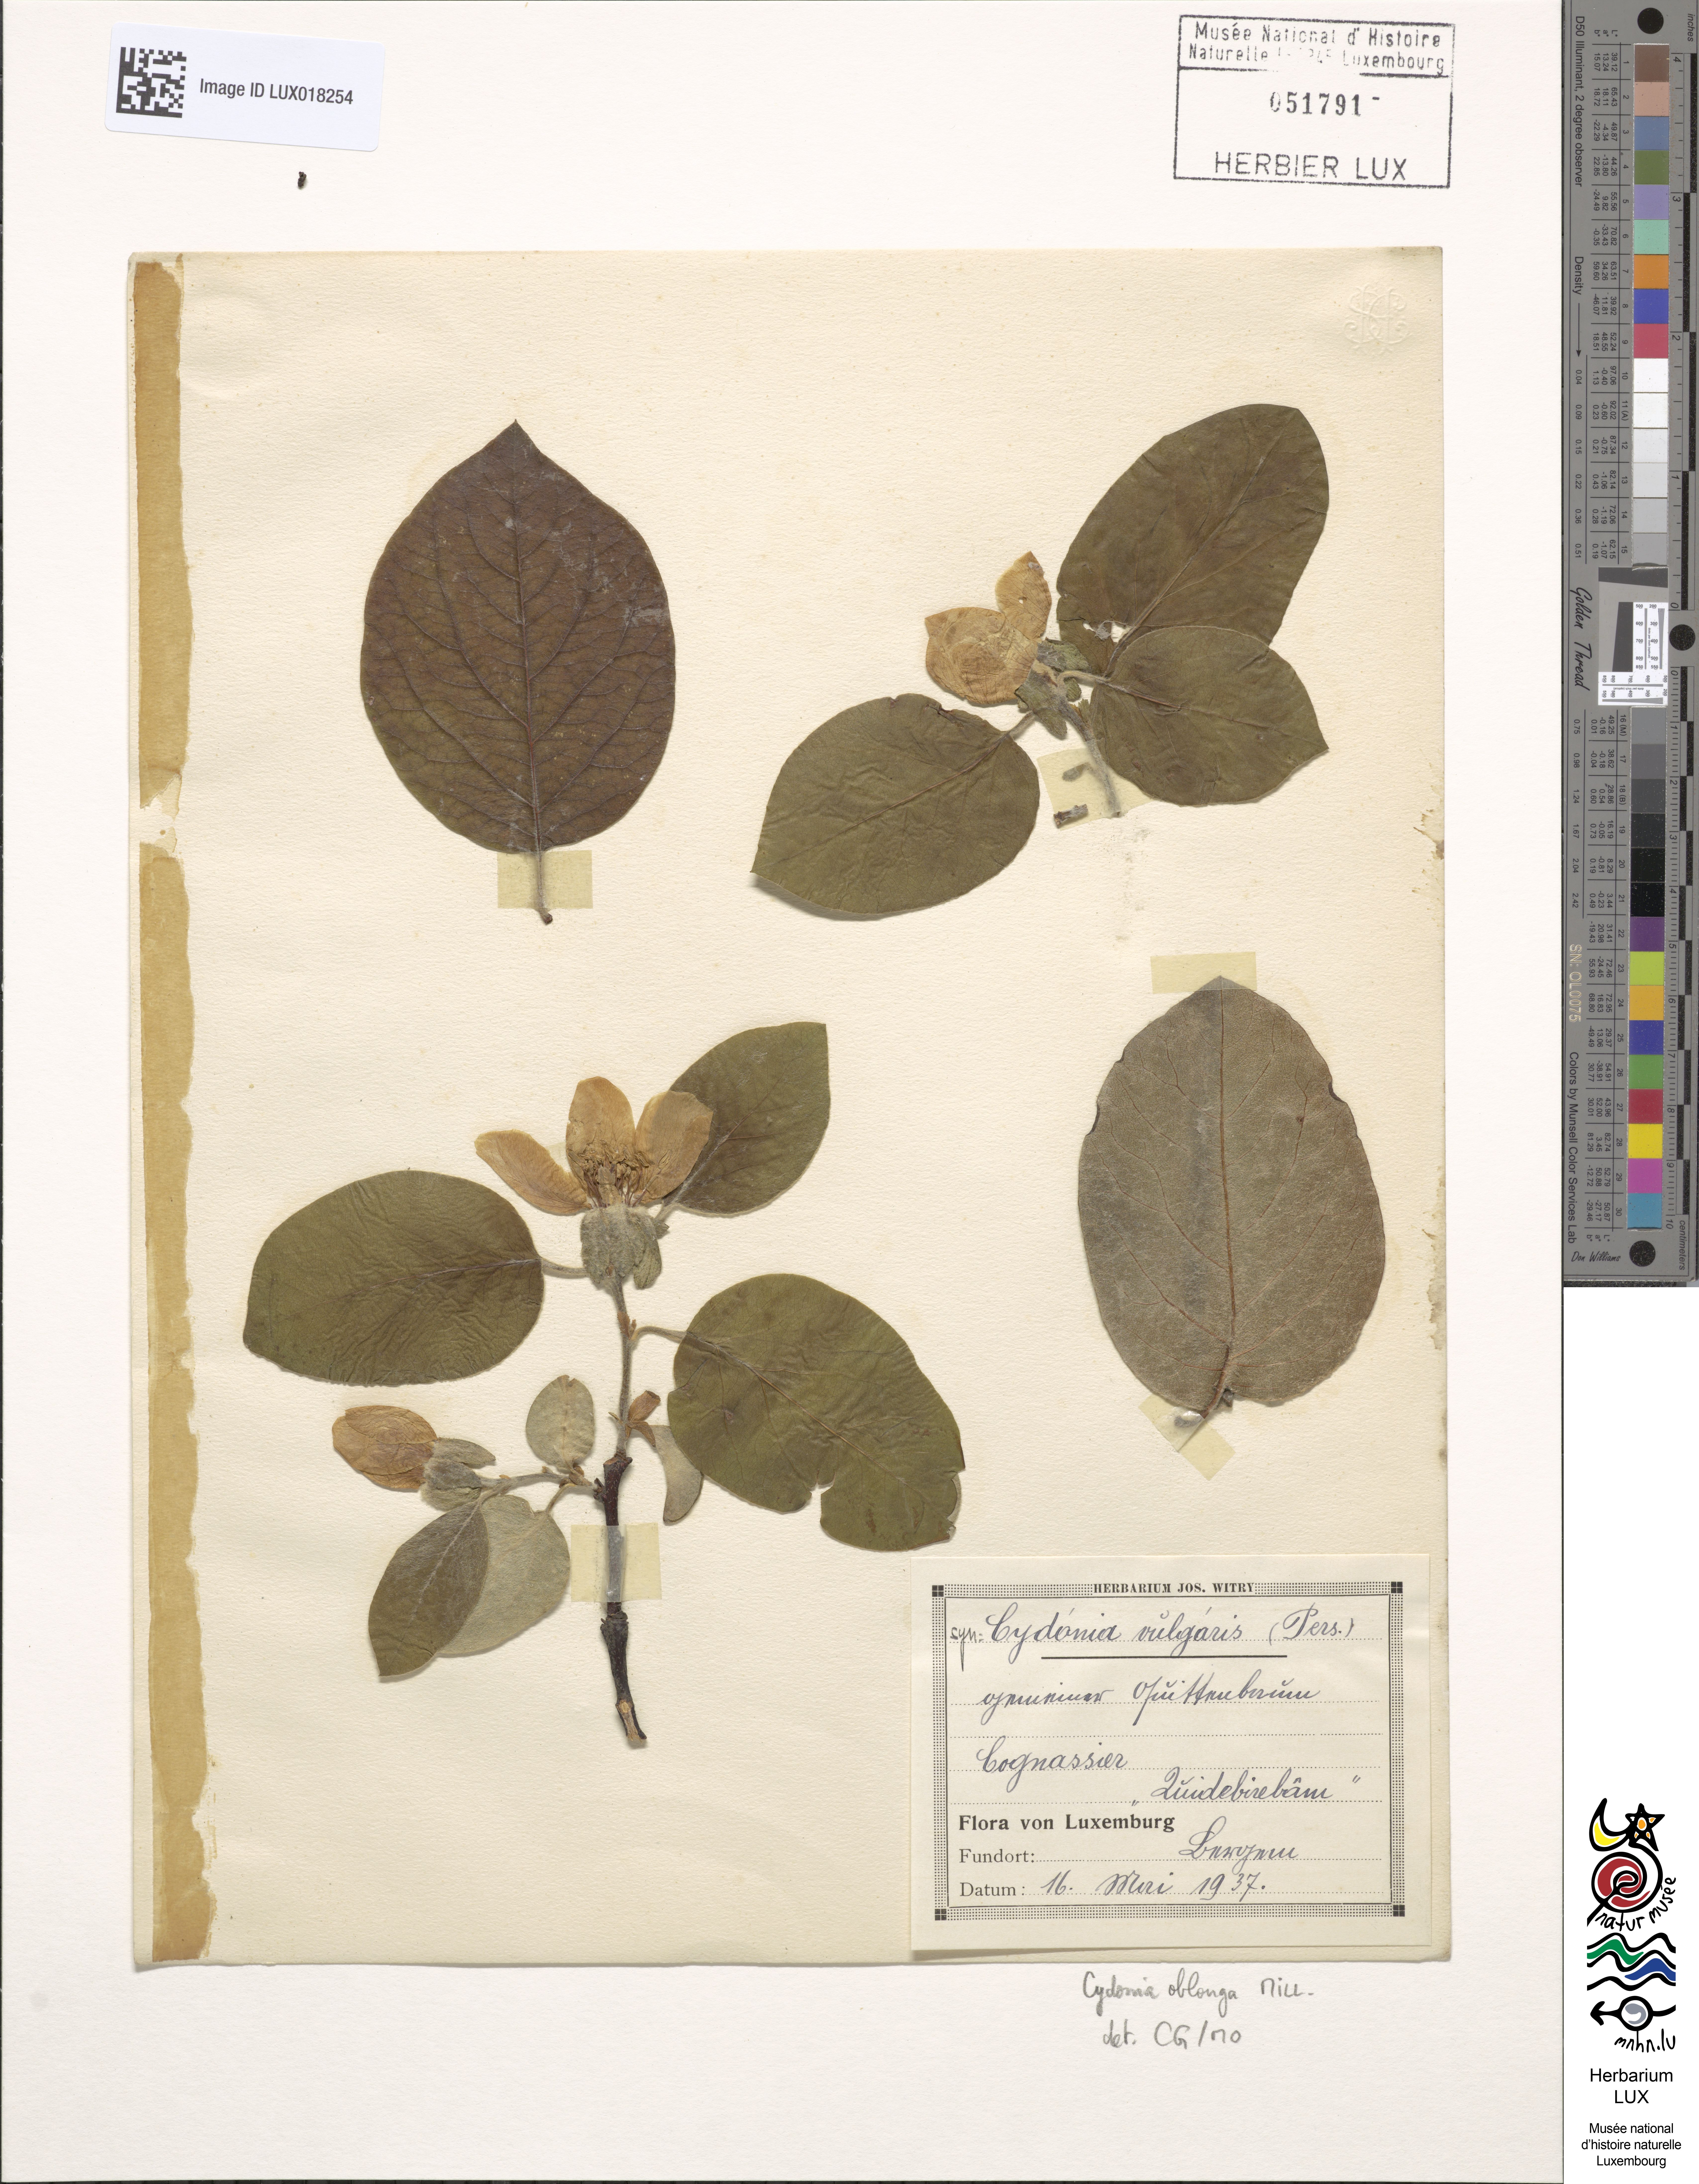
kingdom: Plantae
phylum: Tracheophyta
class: Magnoliopsida
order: Rosales
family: Rosaceae
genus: Cydonia
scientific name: Cydonia oblonga
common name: Quince
